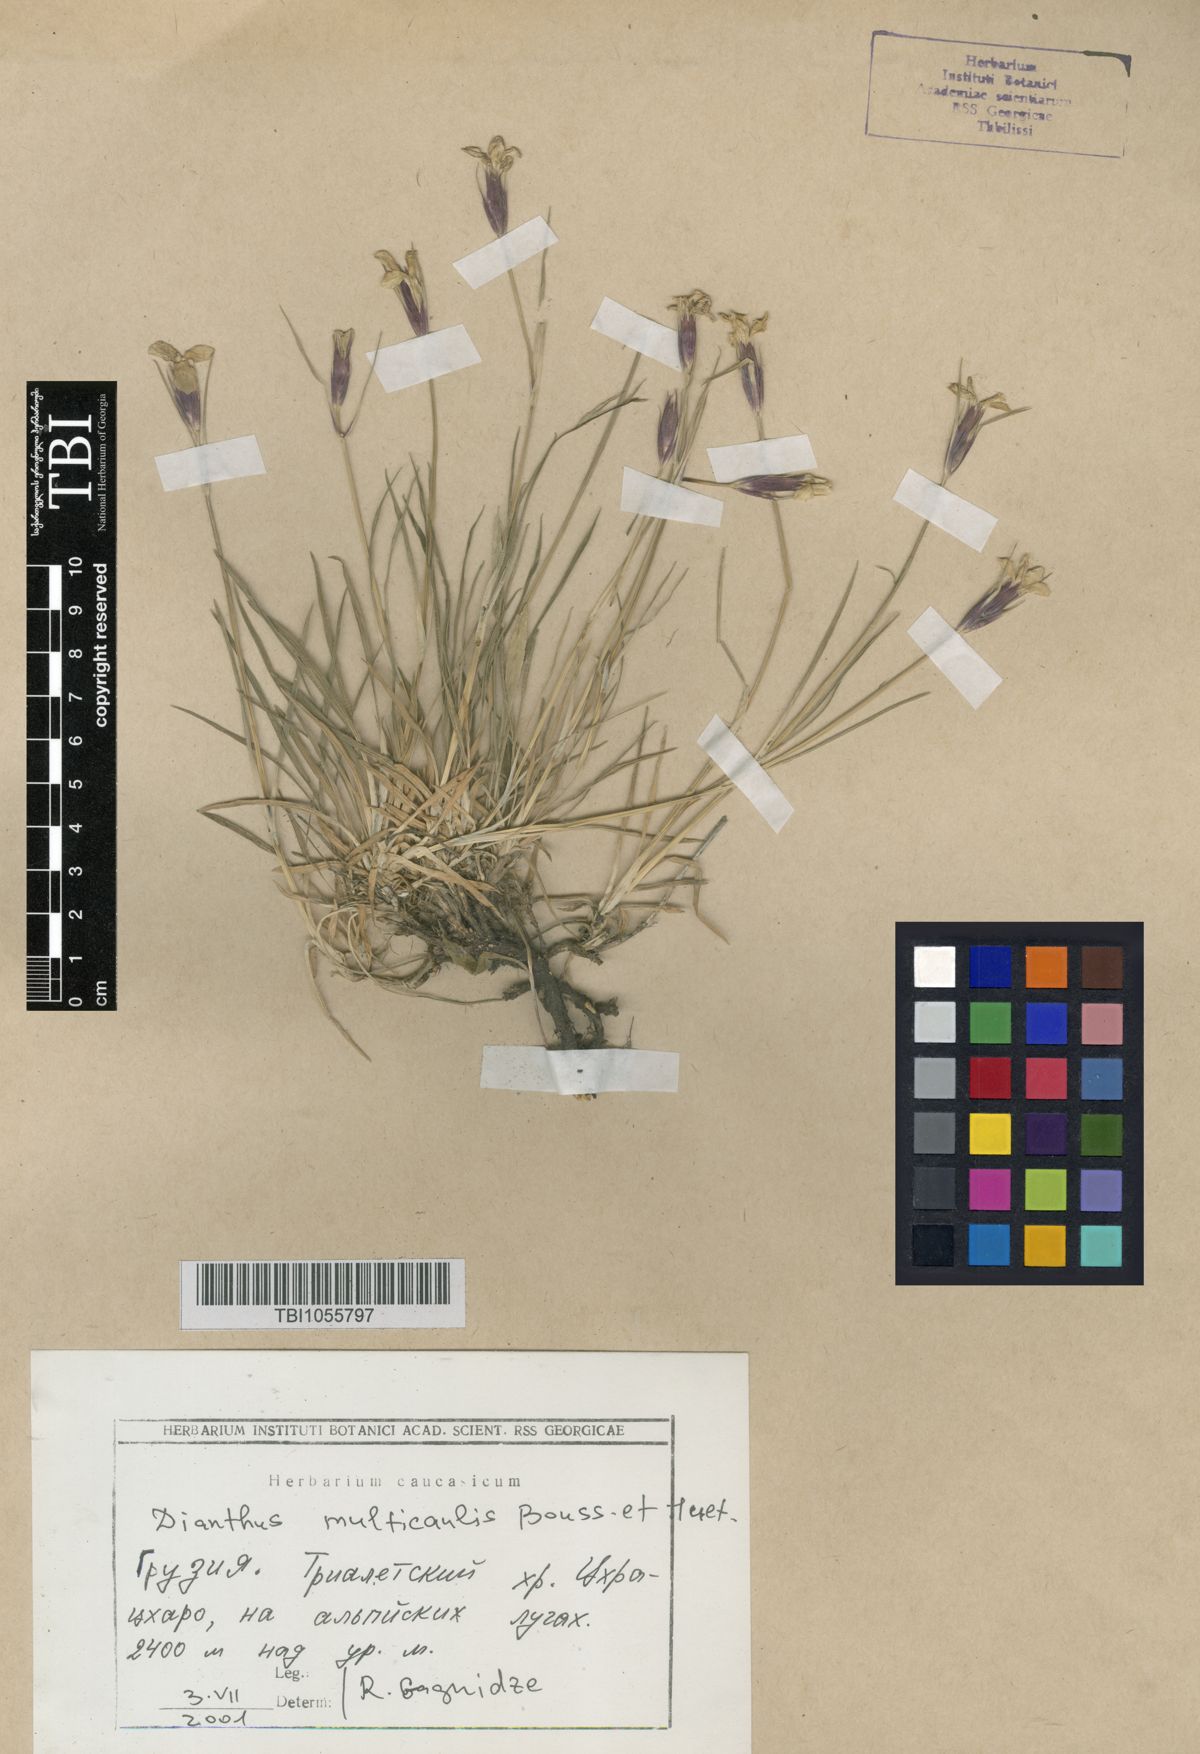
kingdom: Plantae
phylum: Tracheophyta
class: Magnoliopsida
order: Caryophyllales
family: Caryophyllaceae
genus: Dianthus
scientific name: Dianthus cretaceus
